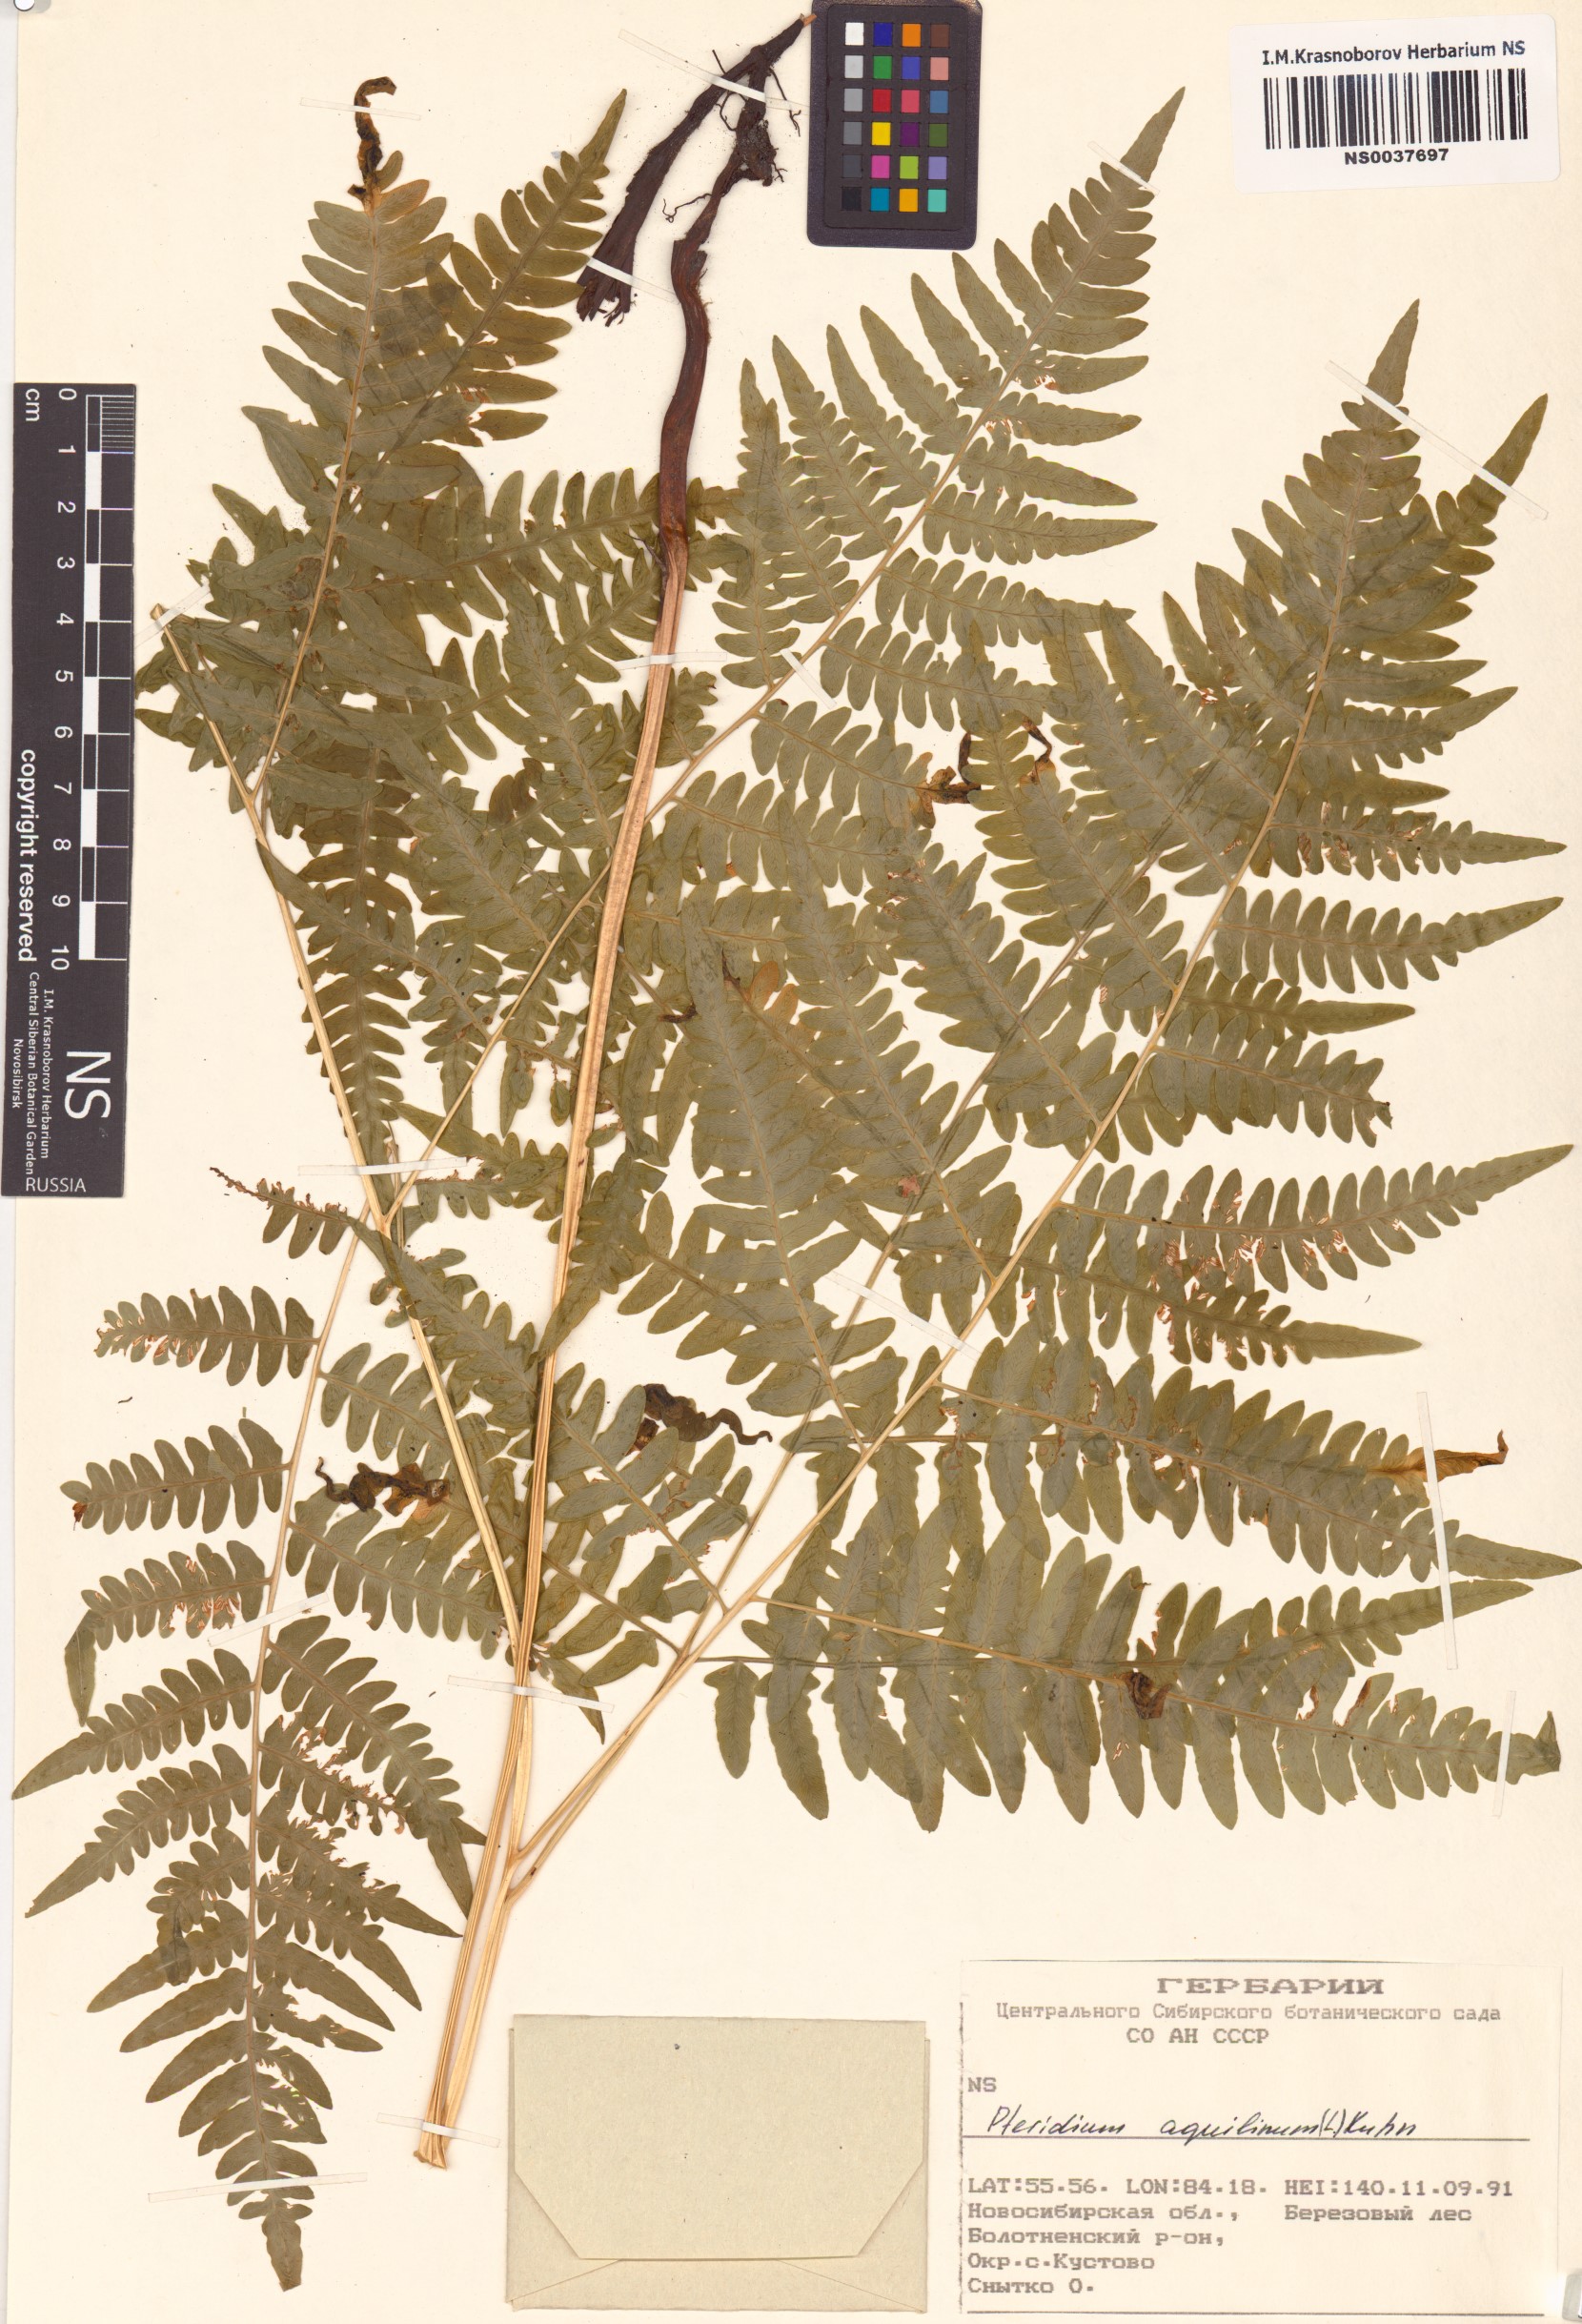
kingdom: Plantae
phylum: Tracheophyta
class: Polypodiopsida
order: Polypodiales
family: Dennstaedtiaceae
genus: Pteridium
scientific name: Pteridium aquilinum
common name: Bracken
